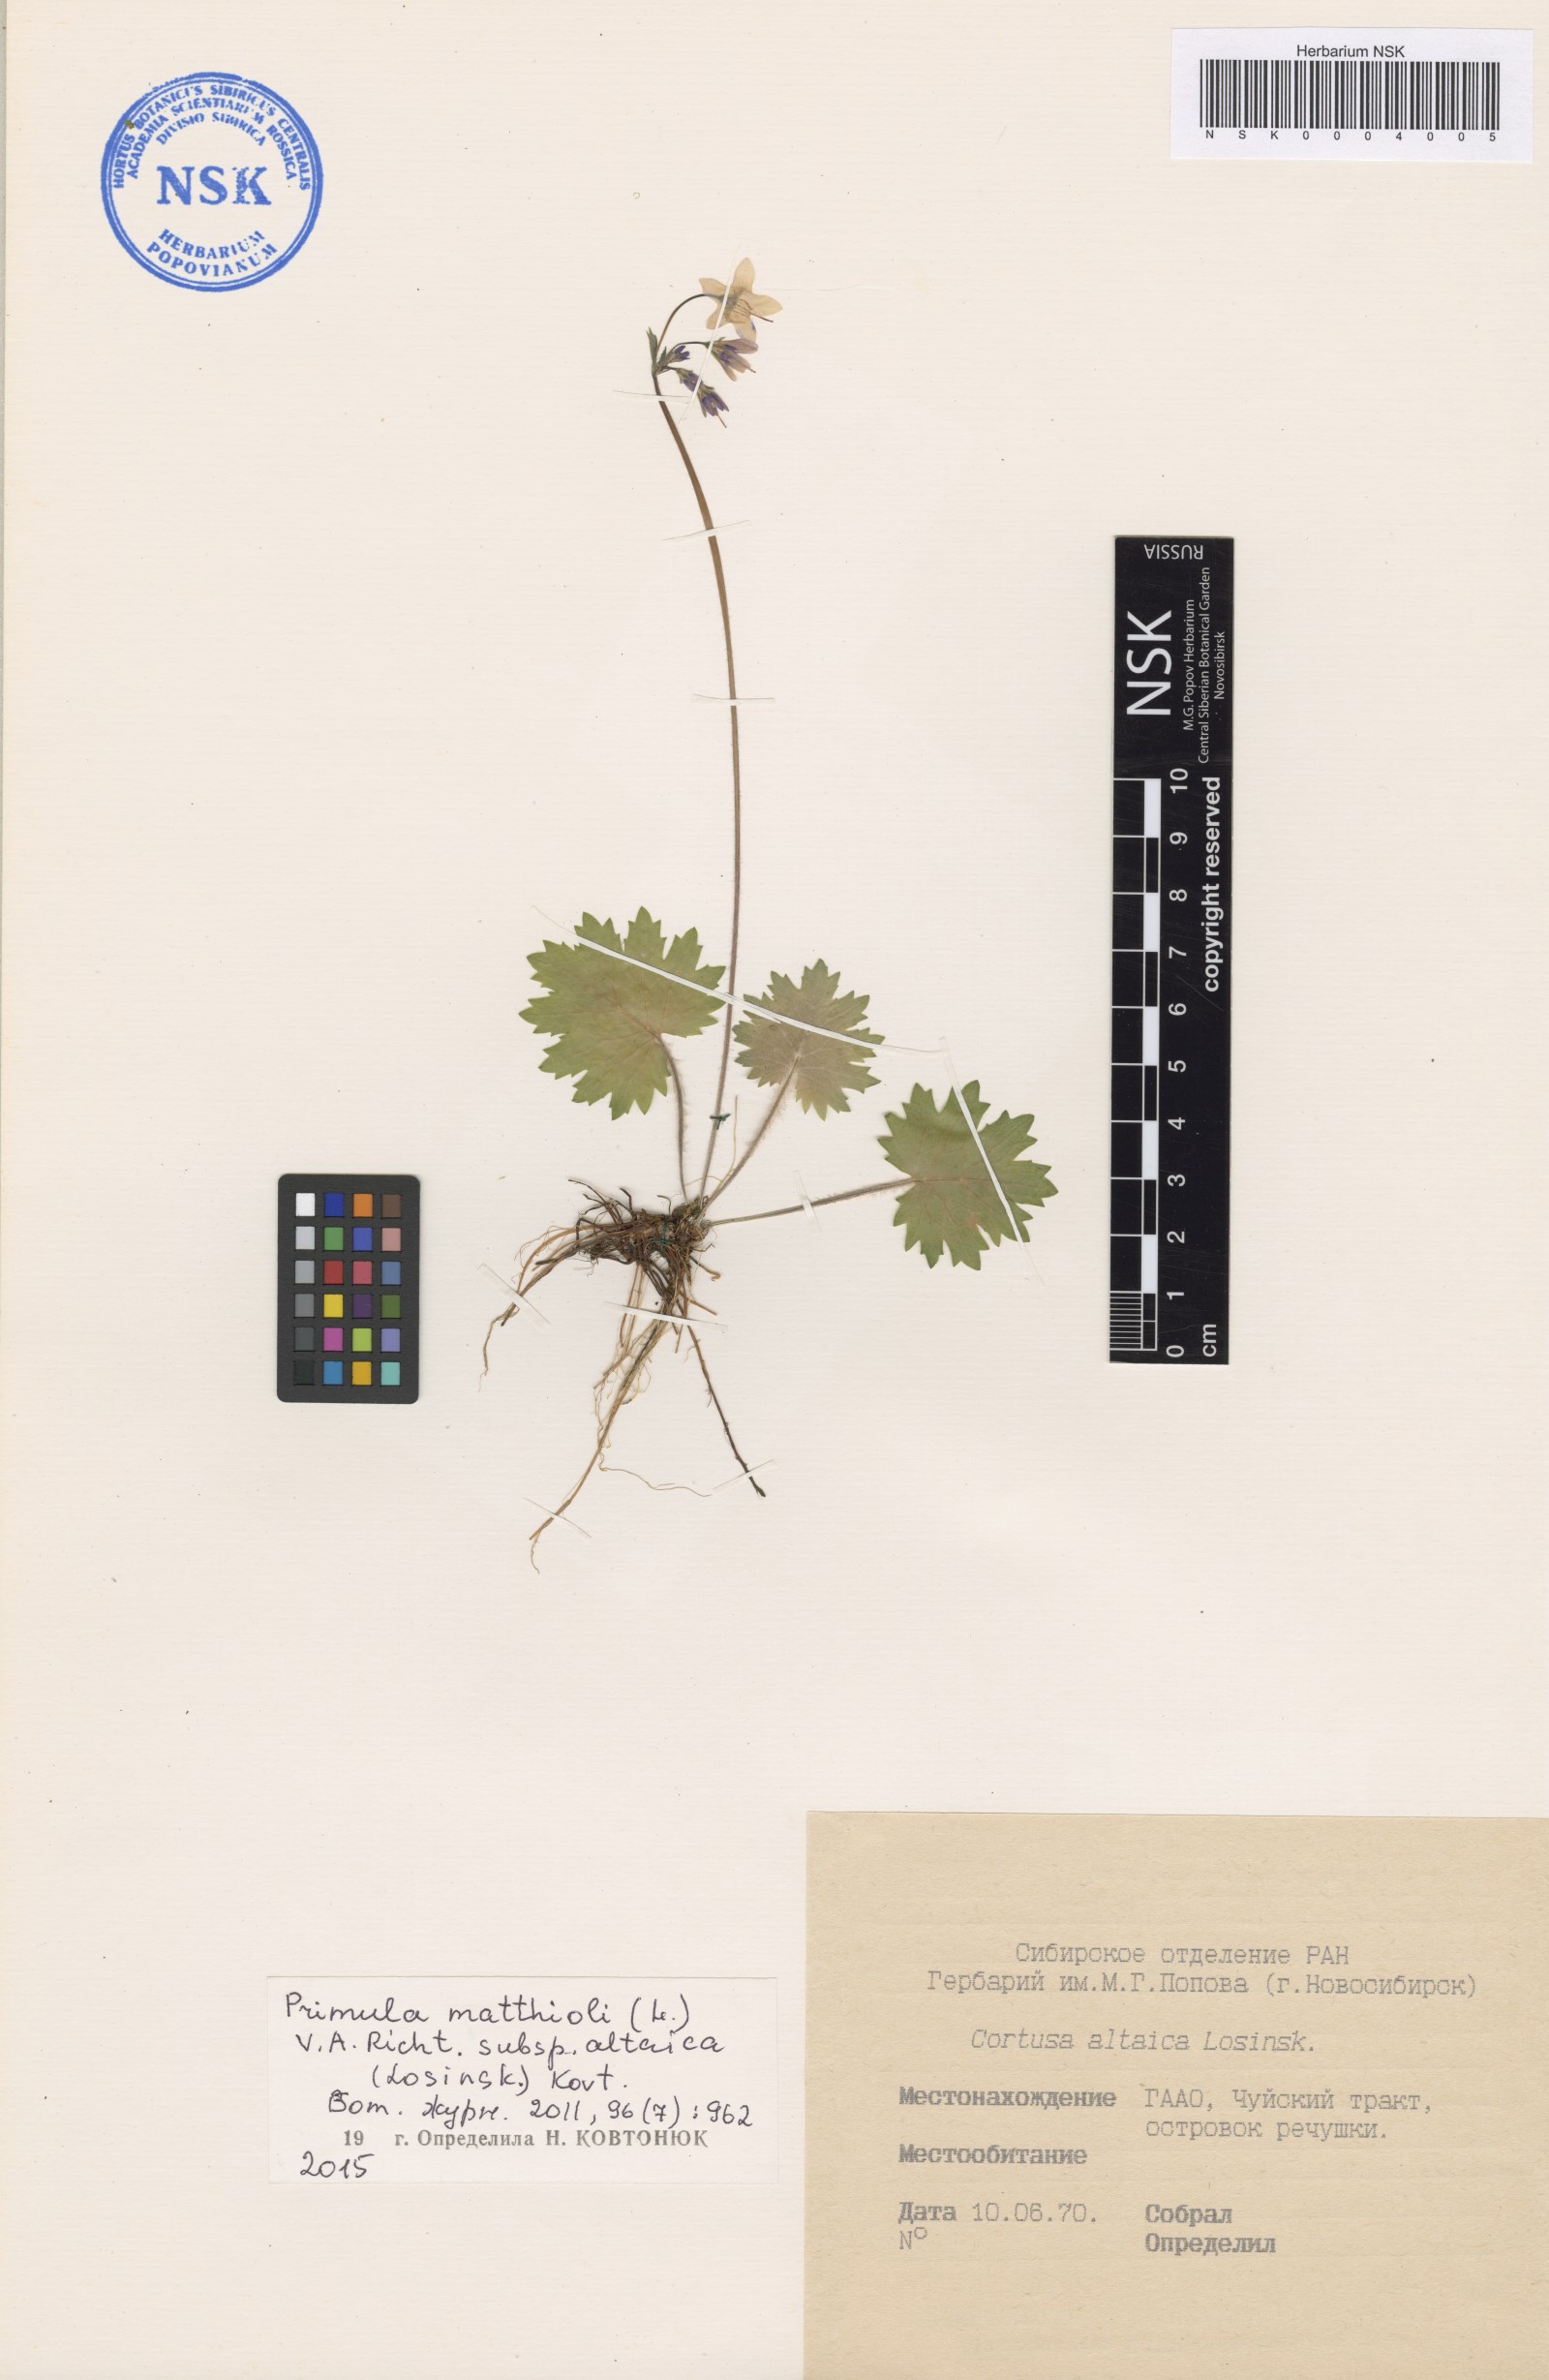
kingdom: Plantae
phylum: Tracheophyta
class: Magnoliopsida
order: Ericales
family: Primulaceae
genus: Primula
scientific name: Primula matthioli
